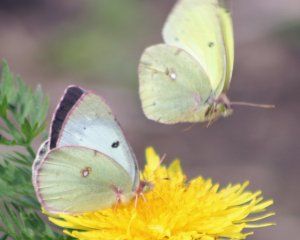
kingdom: Animalia
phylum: Arthropoda
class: Insecta
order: Lepidoptera
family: Pieridae
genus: Colias
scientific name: Colias philodice
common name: Clouded Sulphur
